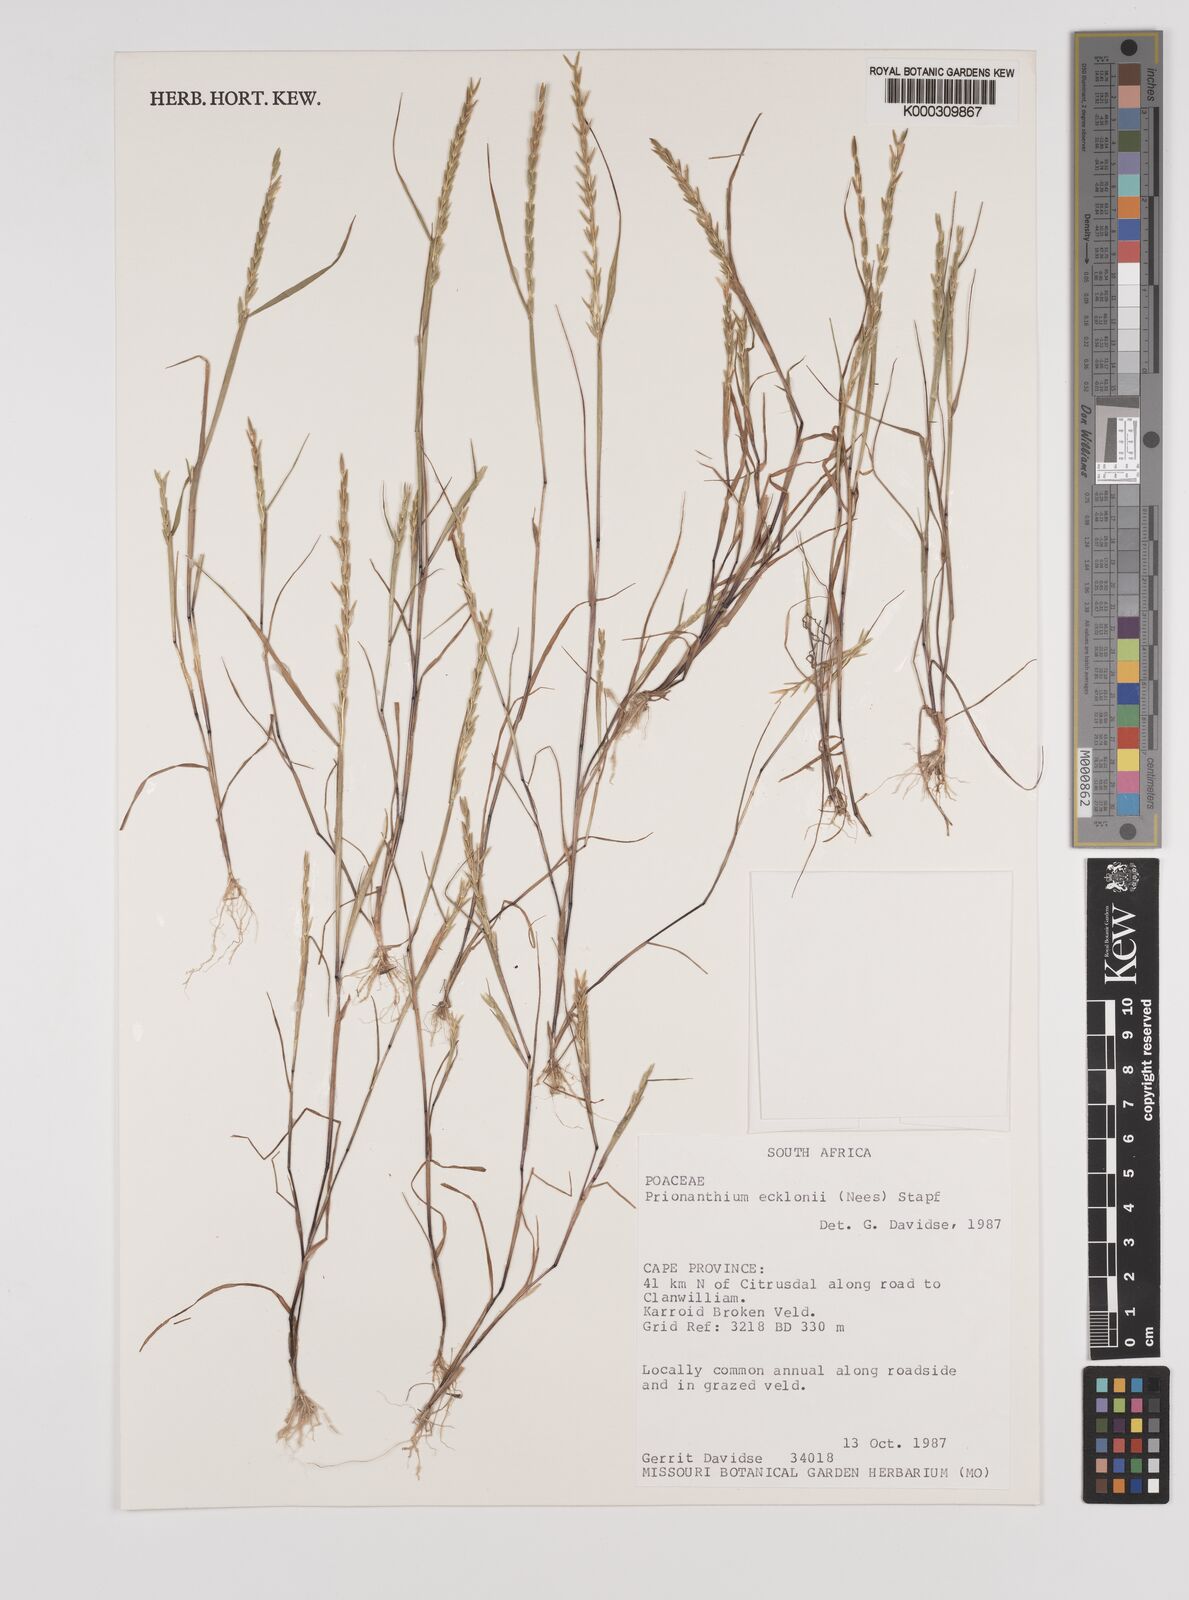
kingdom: Plantae
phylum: Tracheophyta
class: Liliopsida
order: Poales
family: Poaceae
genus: Pentameris
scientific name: Pentameris ecklonii
